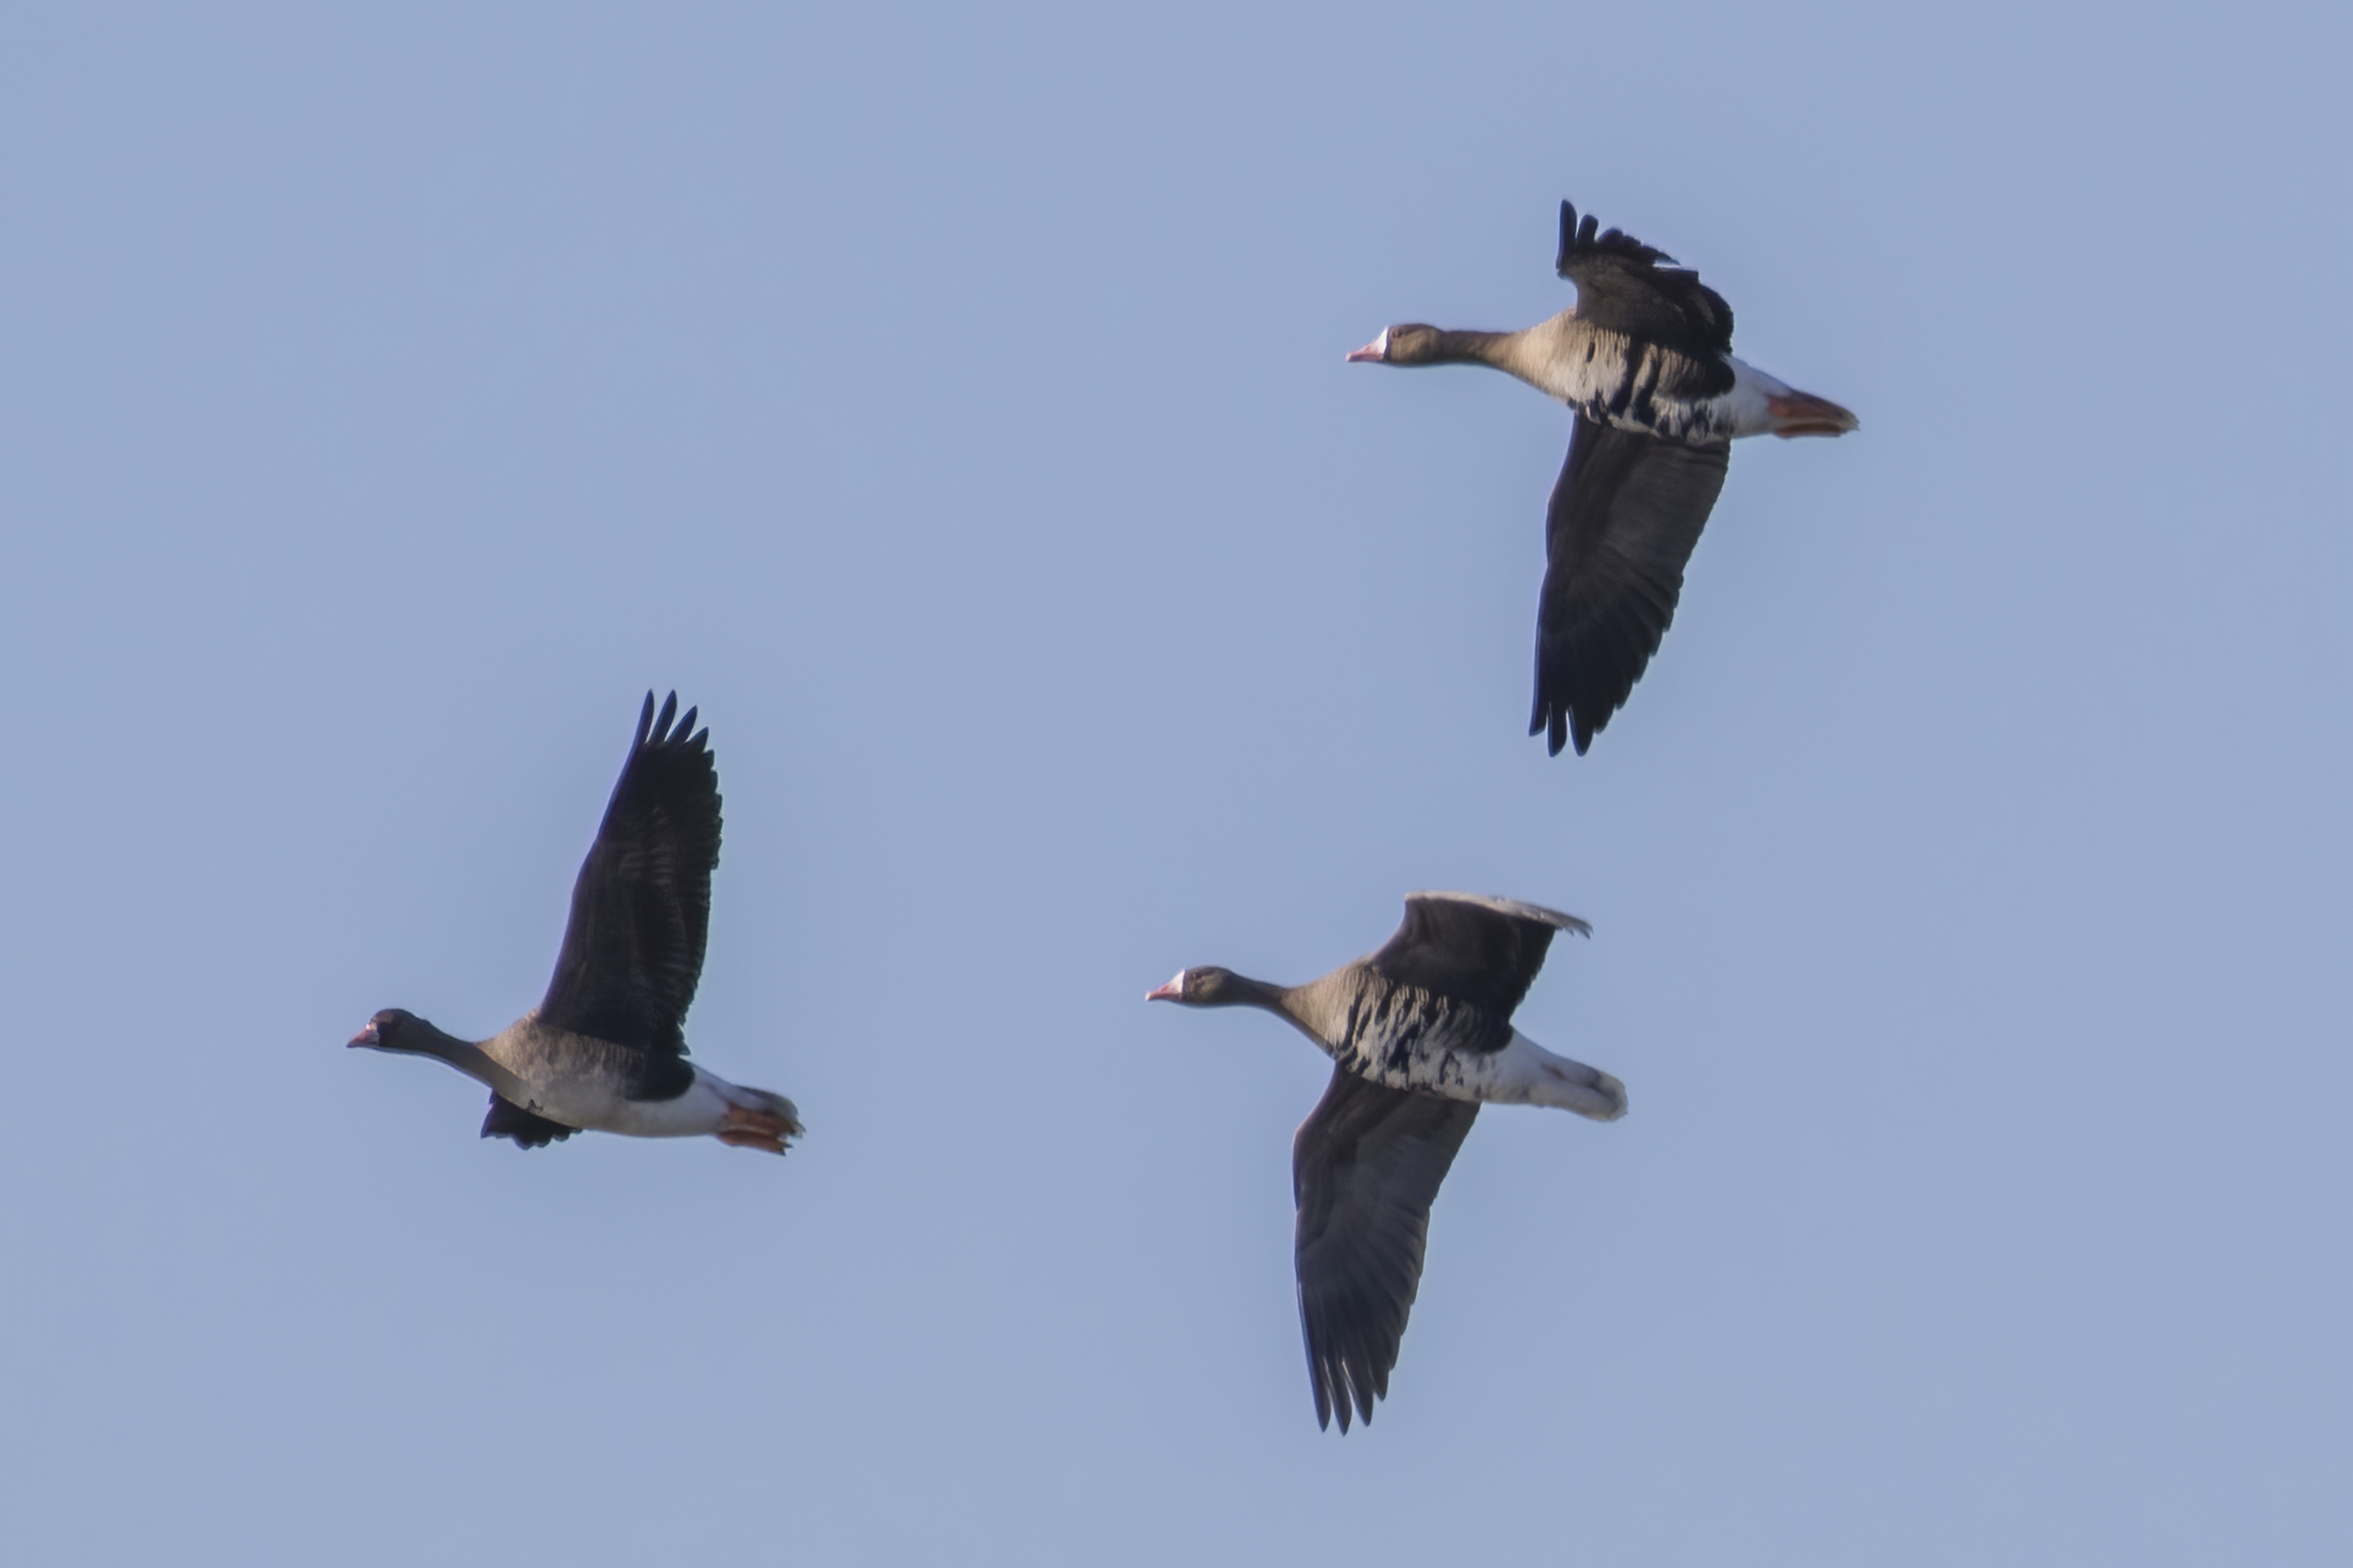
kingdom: Animalia
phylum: Chordata
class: Aves
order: Anseriformes
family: Anatidae
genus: Anser
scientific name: Anser albifrons
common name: Blisgås
